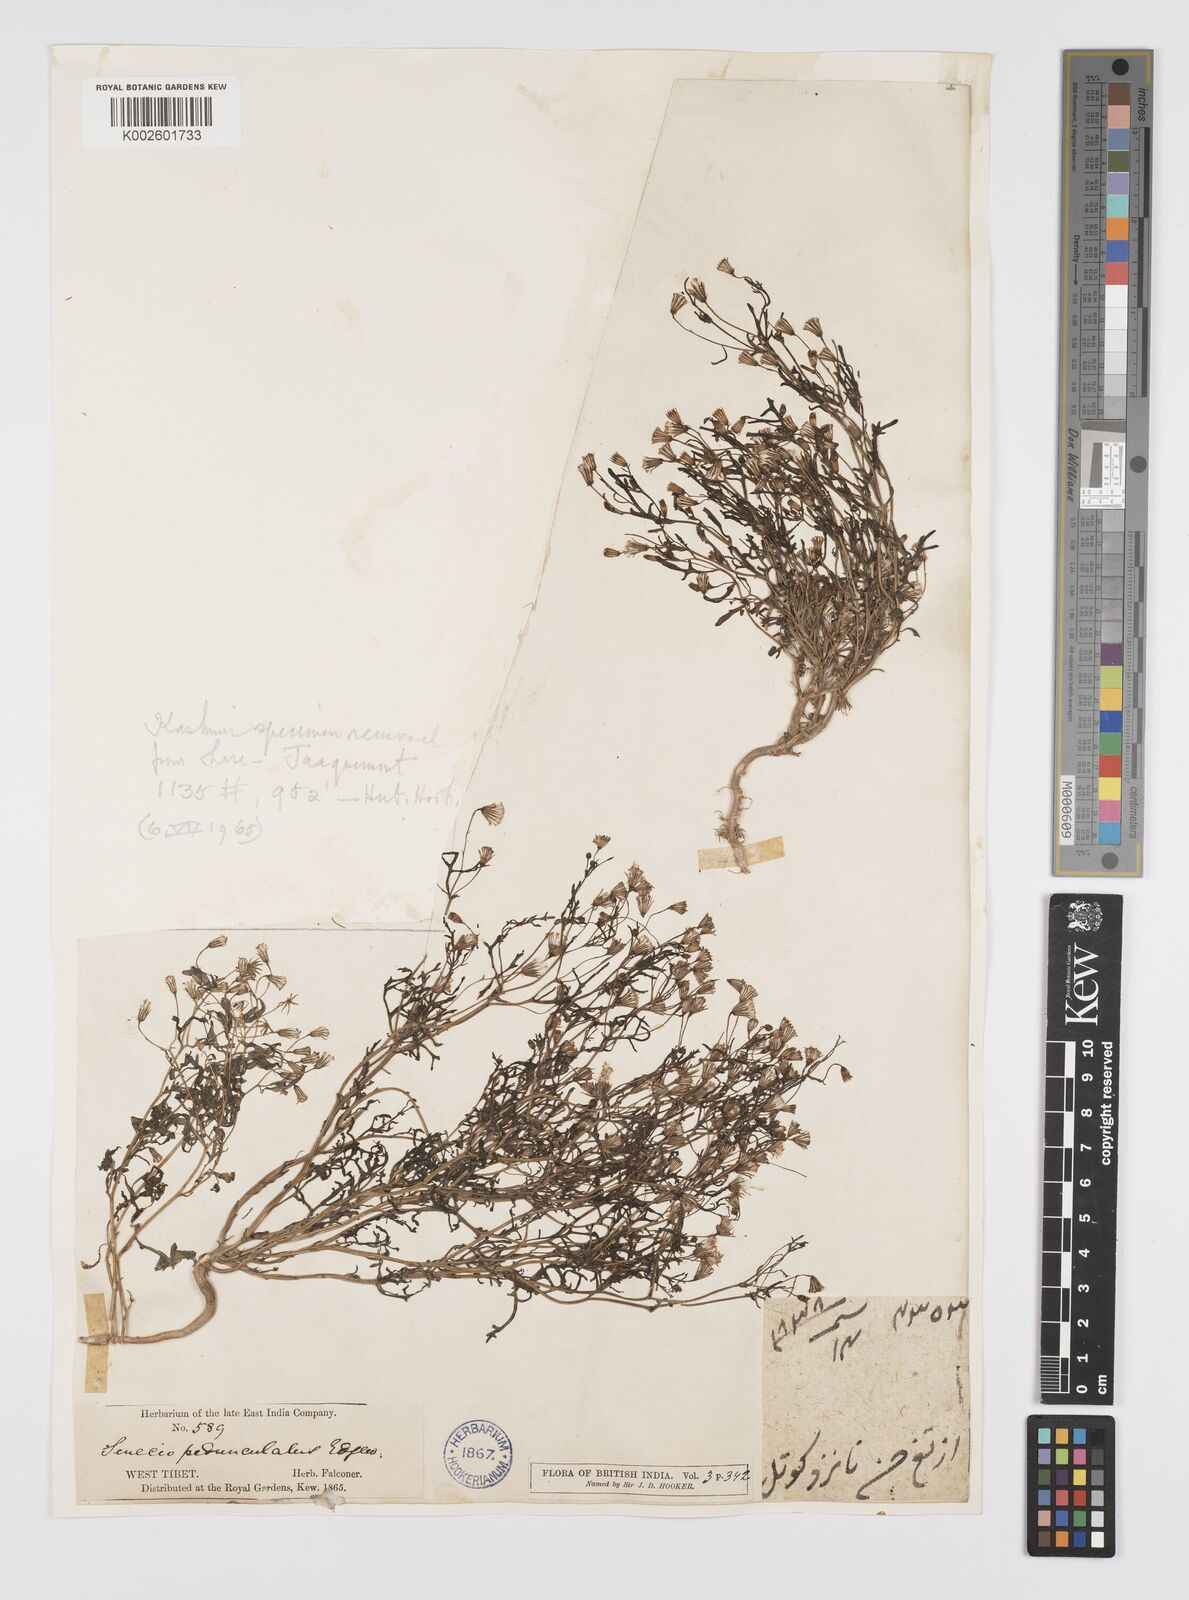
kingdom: Plantae
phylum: Tracheophyta
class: Magnoliopsida
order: Asterales
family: Asteraceae
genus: Senecio
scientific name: Senecio krascheninnikovii
